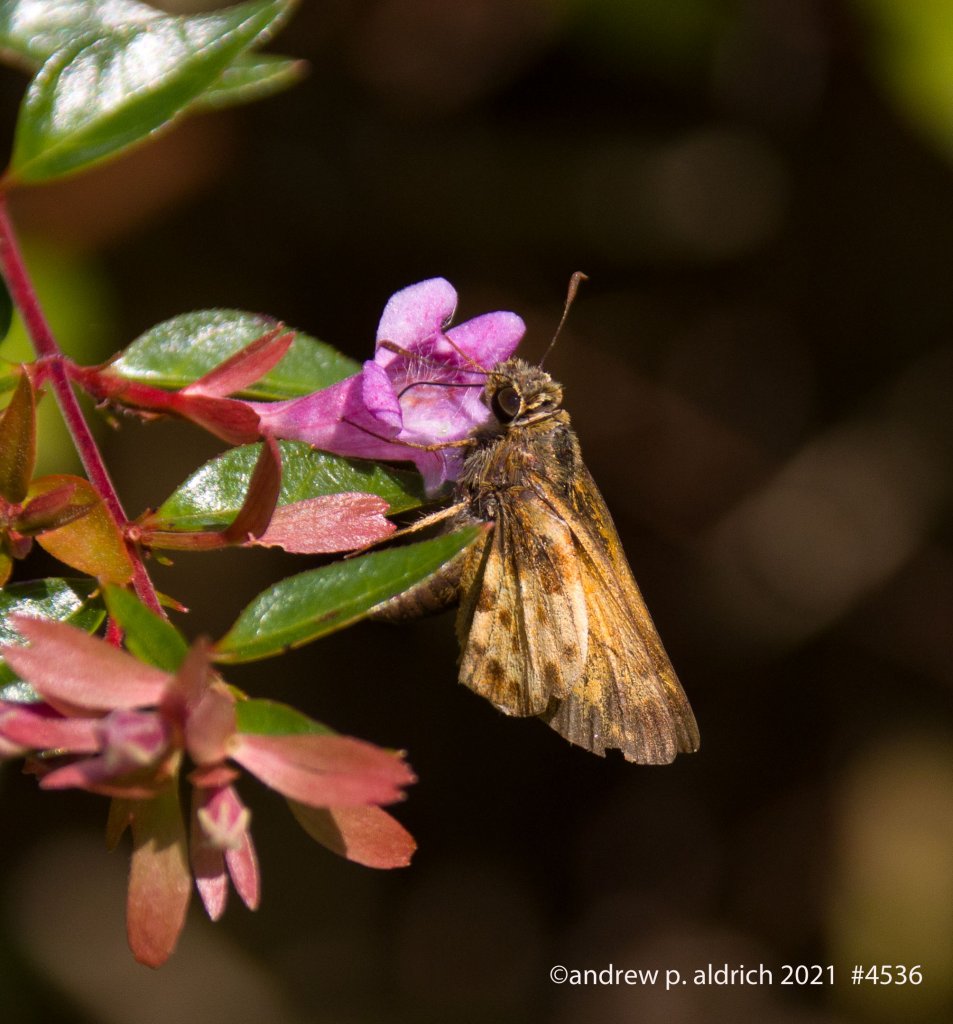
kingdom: Animalia
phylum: Arthropoda
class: Insecta
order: Lepidoptera
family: Hesperiidae
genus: Lon
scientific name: Lon zabulon
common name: Zabulon Skipper
